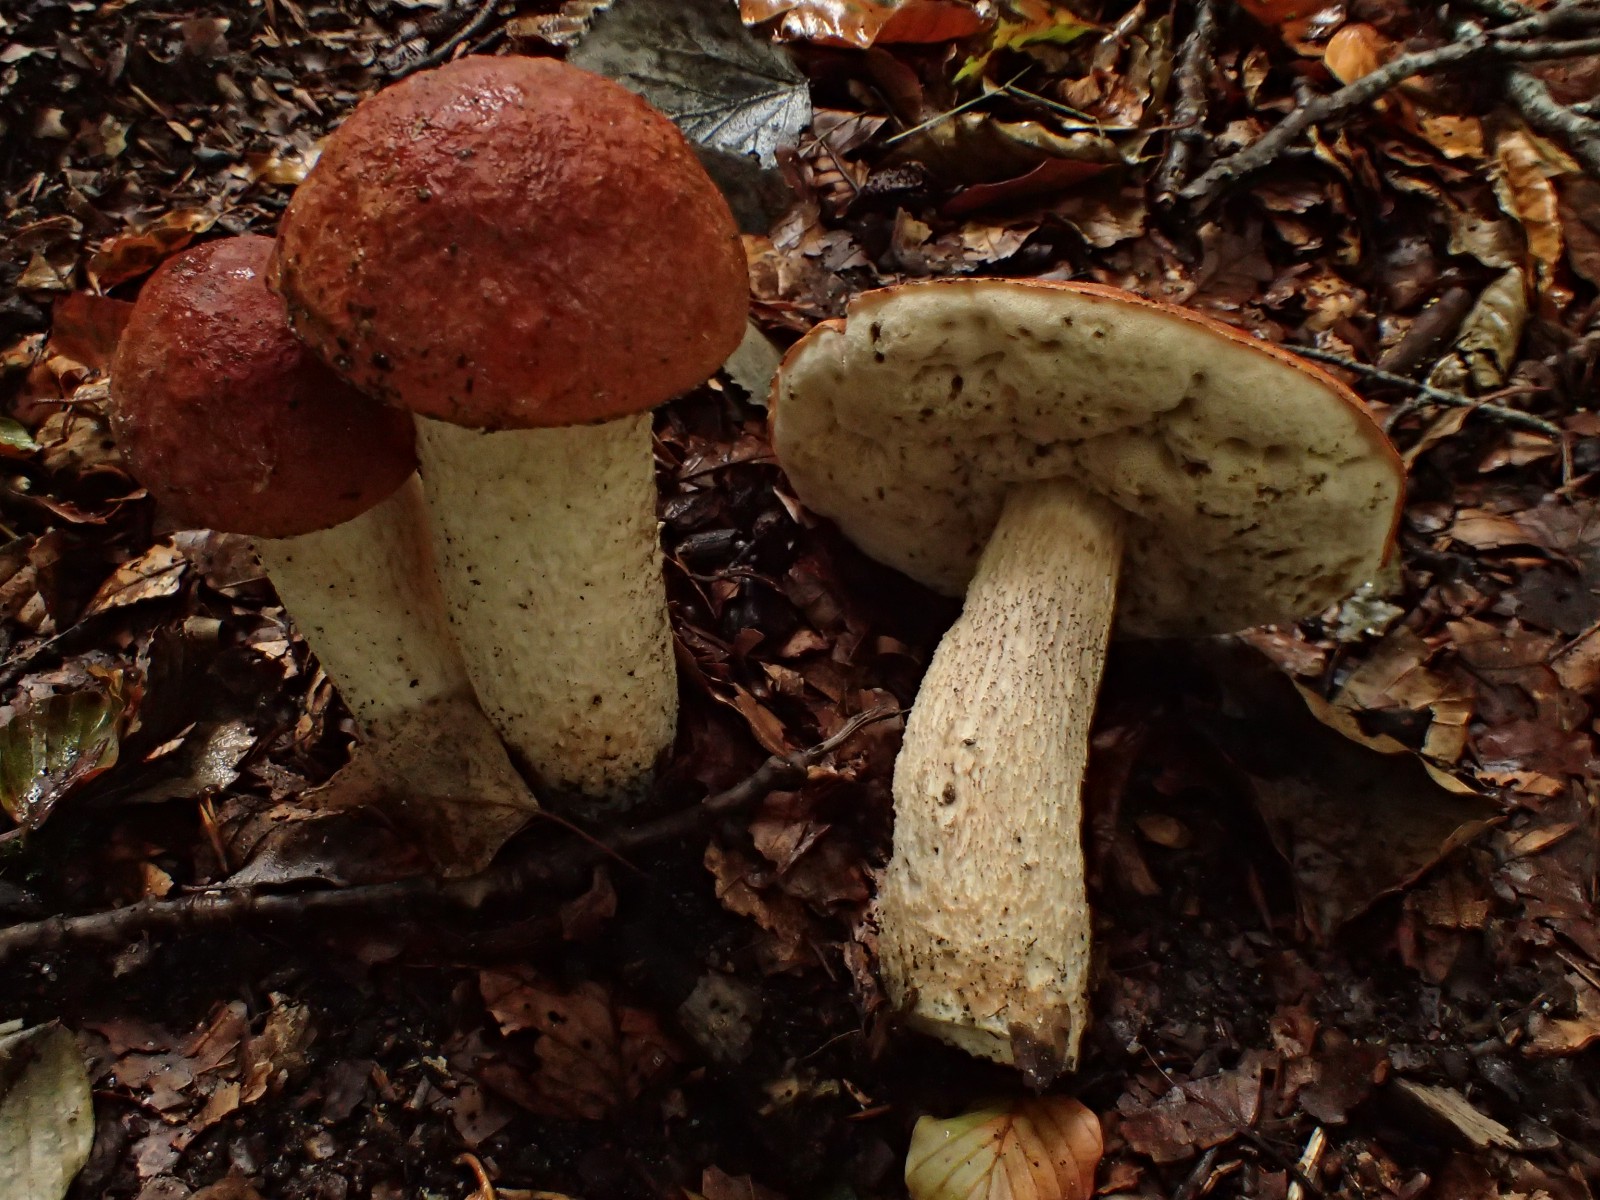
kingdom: Fungi
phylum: Basidiomycota
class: Agaricomycetes
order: Boletales
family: Boletaceae
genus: Leccinum
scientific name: Leccinum aurantiacum
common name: rustrød skælrørhat
